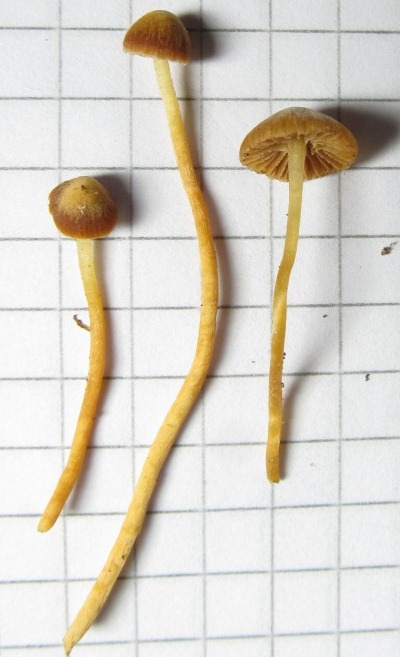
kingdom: Fungi
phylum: Basidiomycota
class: Agaricomycetes
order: Agaricales
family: Hymenogastraceae
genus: Galerina
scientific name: Galerina sphagnicola
